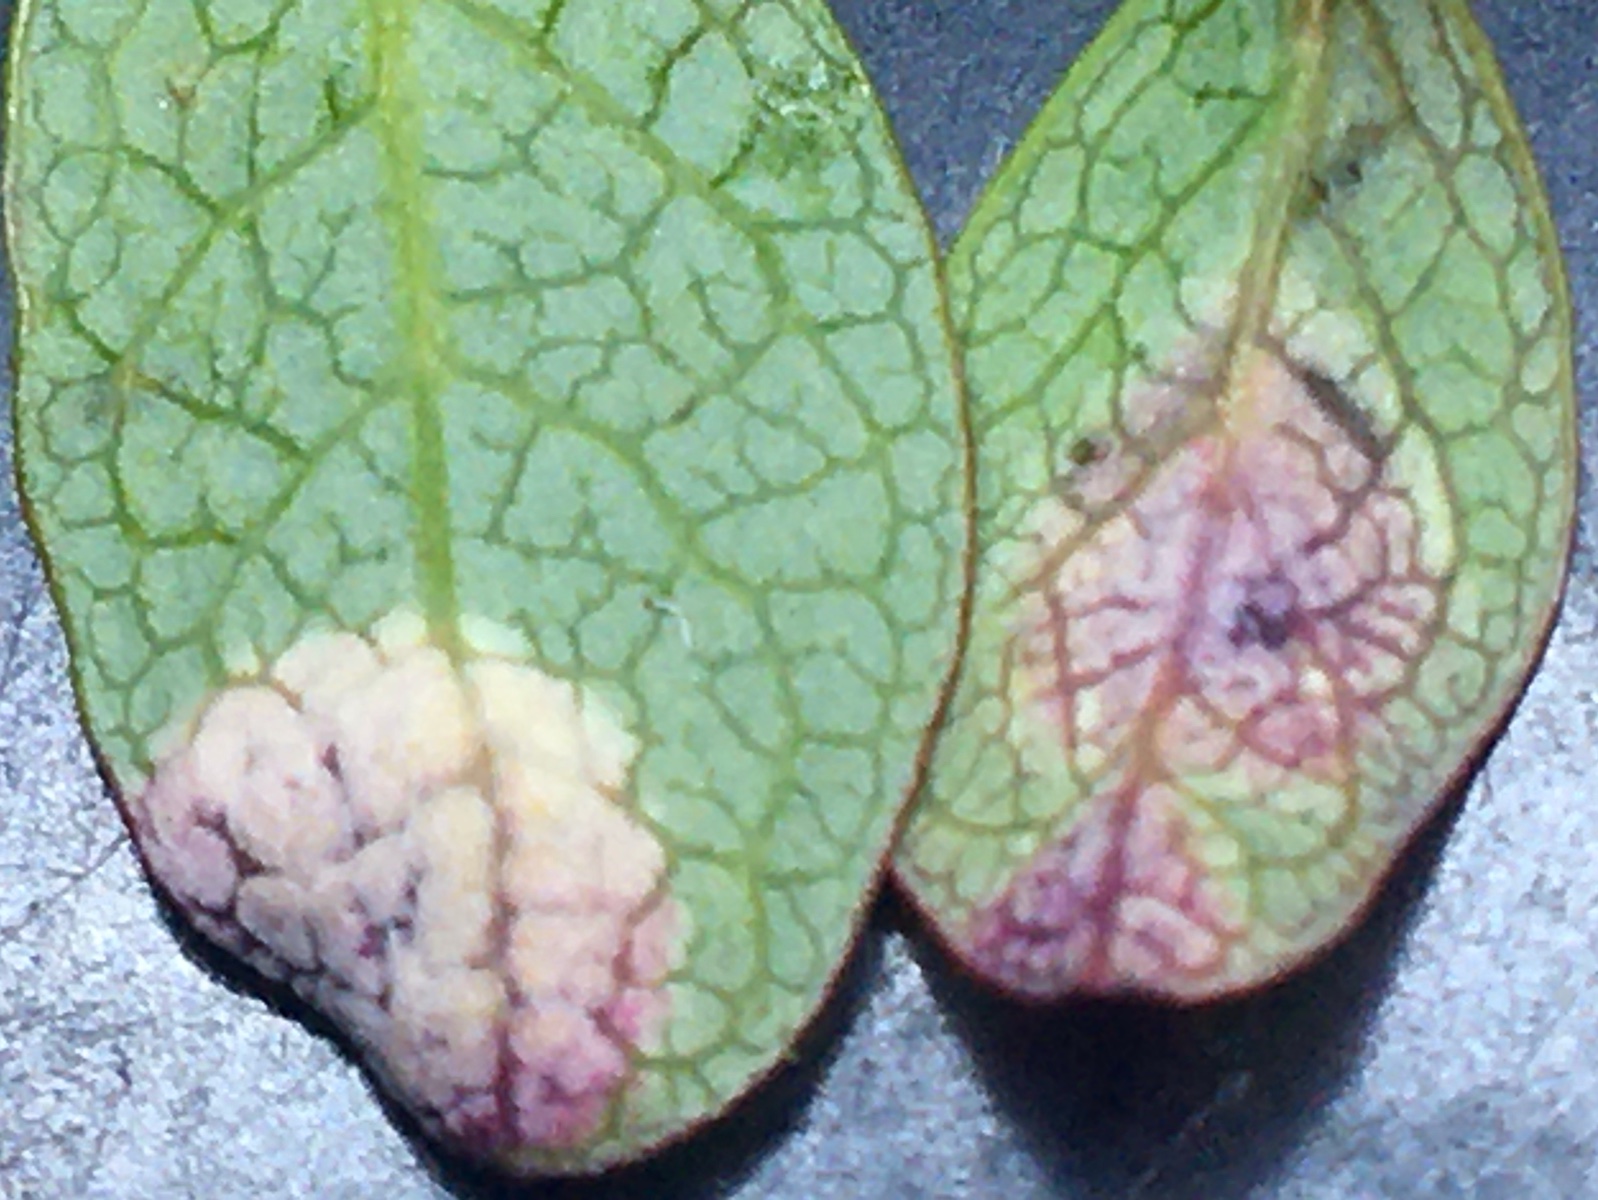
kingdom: Fungi
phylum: Basidiomycota
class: Exobasidiomycetes
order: Exobasidiales
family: Exobasidiaceae
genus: Exobasidium
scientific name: Exobasidium pachysporum
